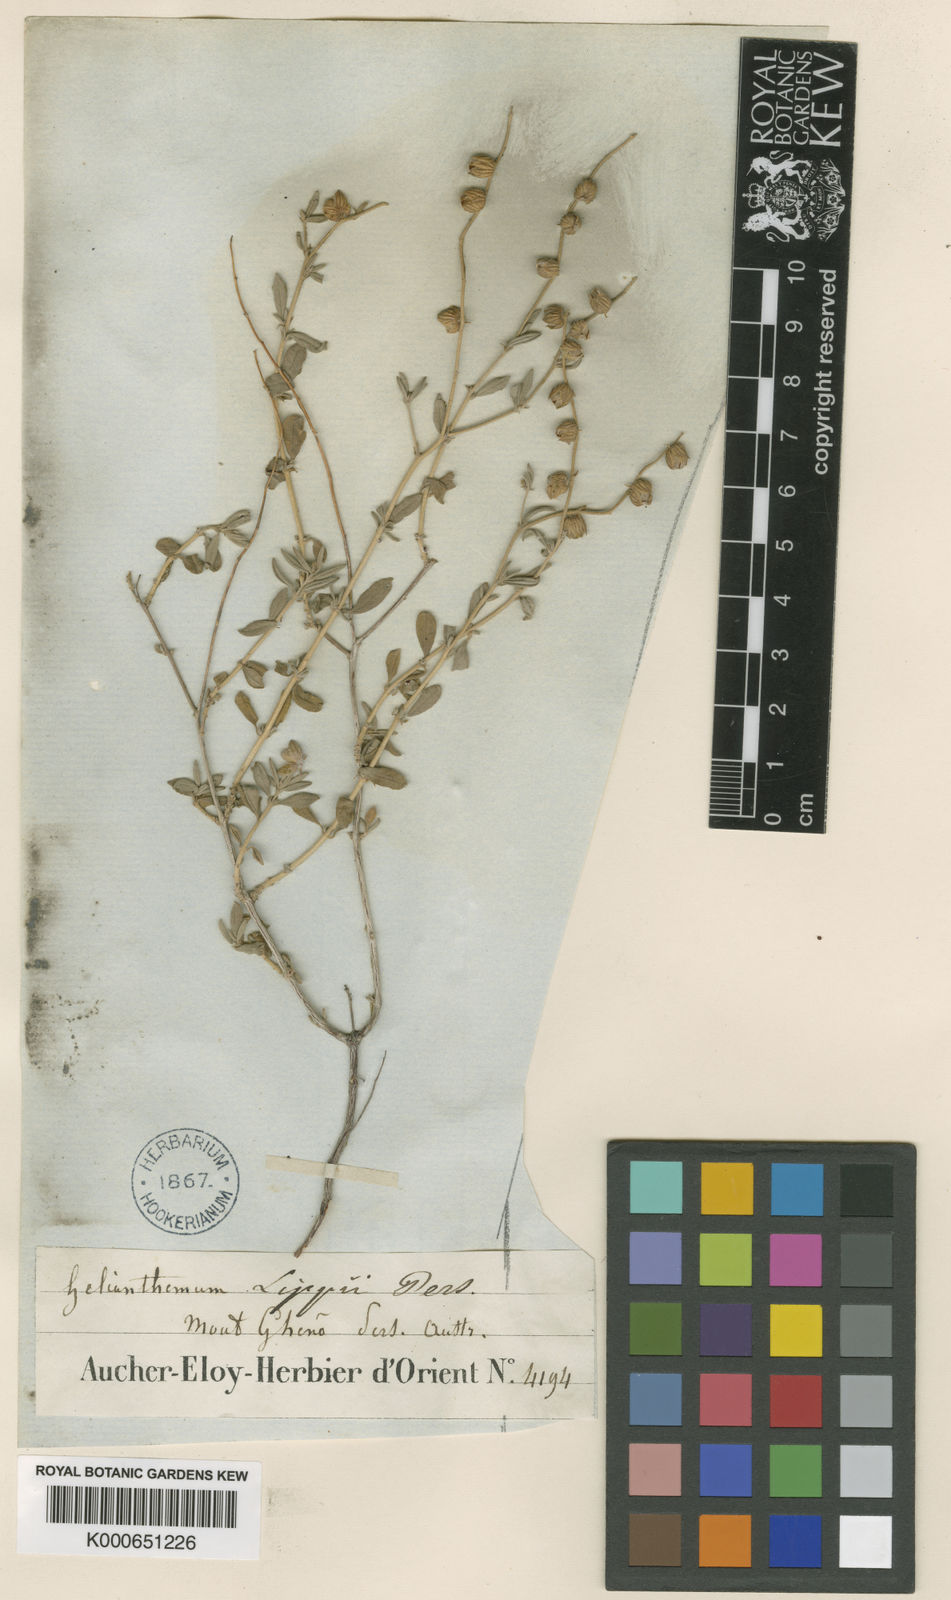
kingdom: Plantae
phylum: Tracheophyta
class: Magnoliopsida
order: Malvales
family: Cistaceae
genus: Helianthemum
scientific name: Helianthemum
